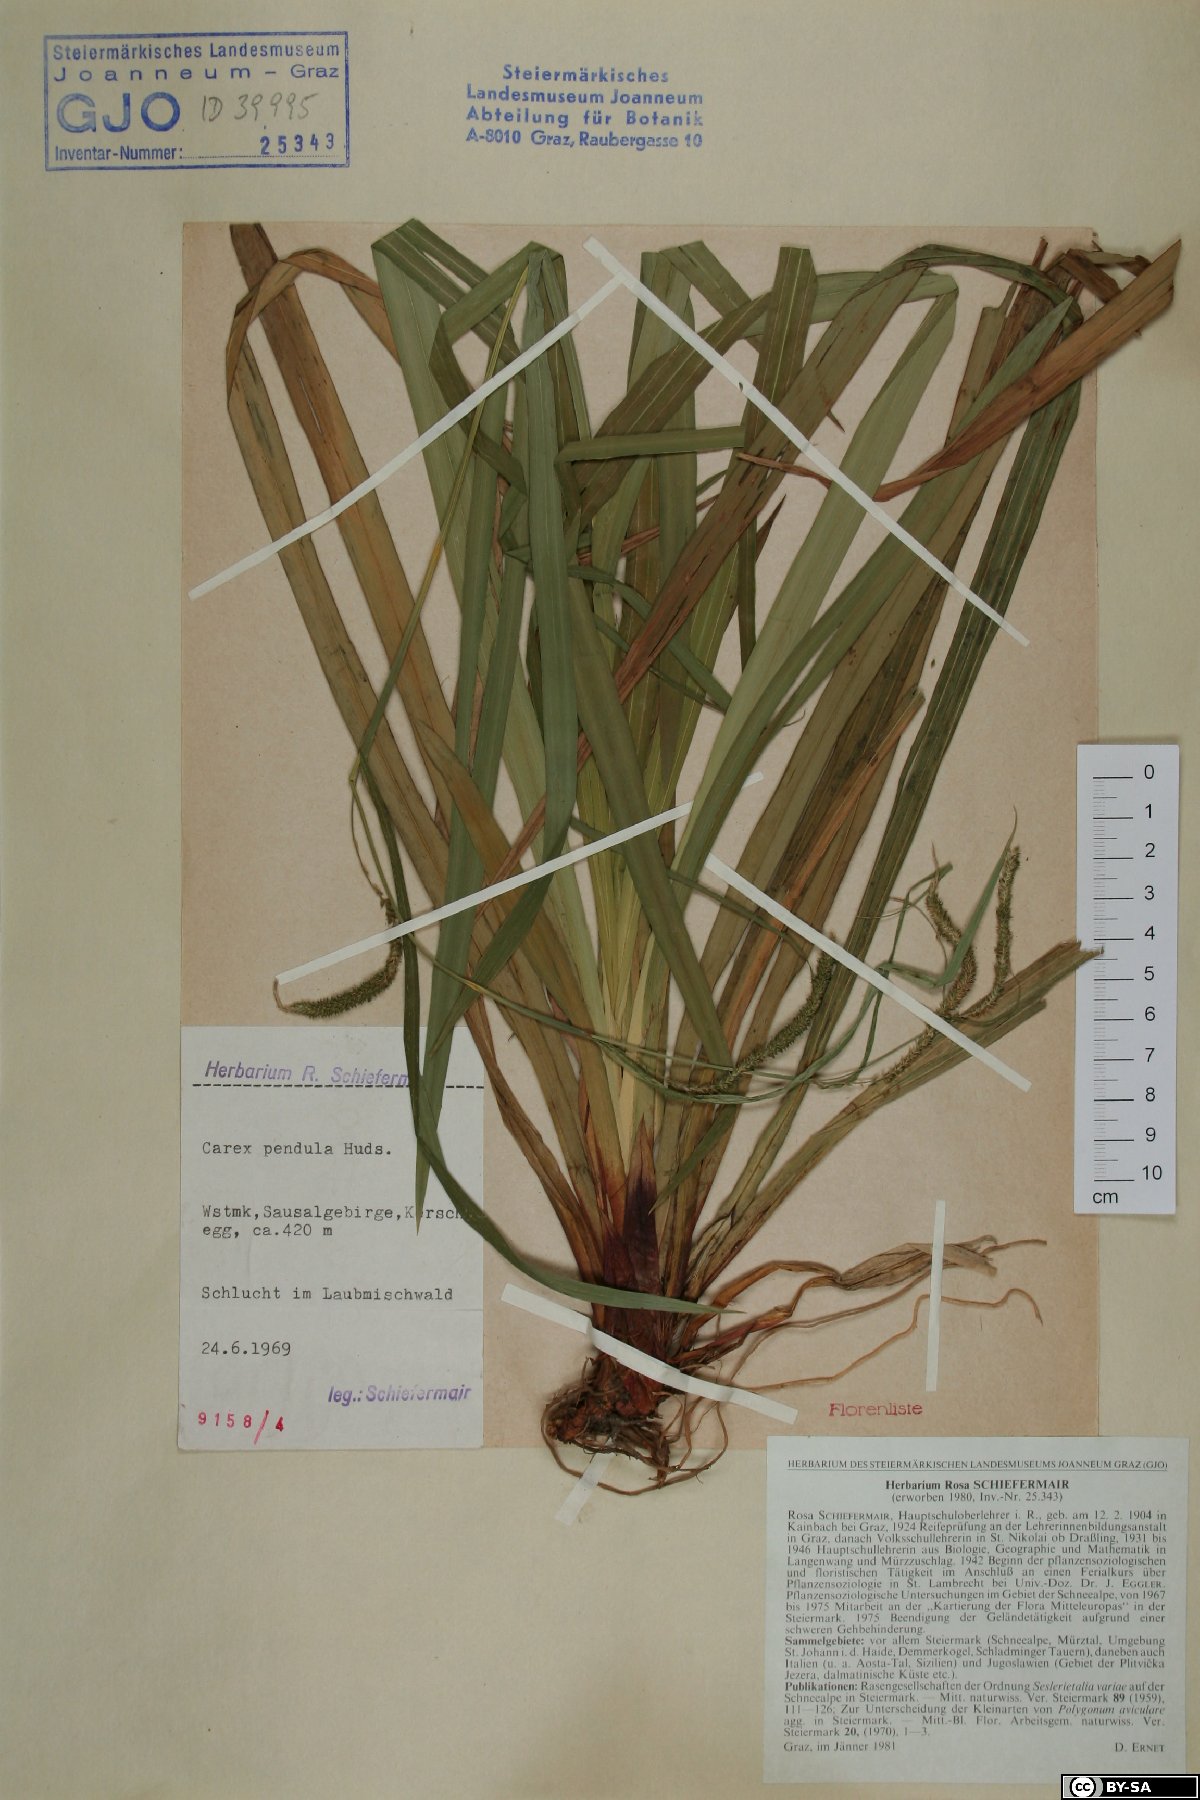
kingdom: Plantae
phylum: Tracheophyta
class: Liliopsida
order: Poales
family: Cyperaceae
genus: Carex
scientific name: Carex pendula
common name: Pendulous sedge
